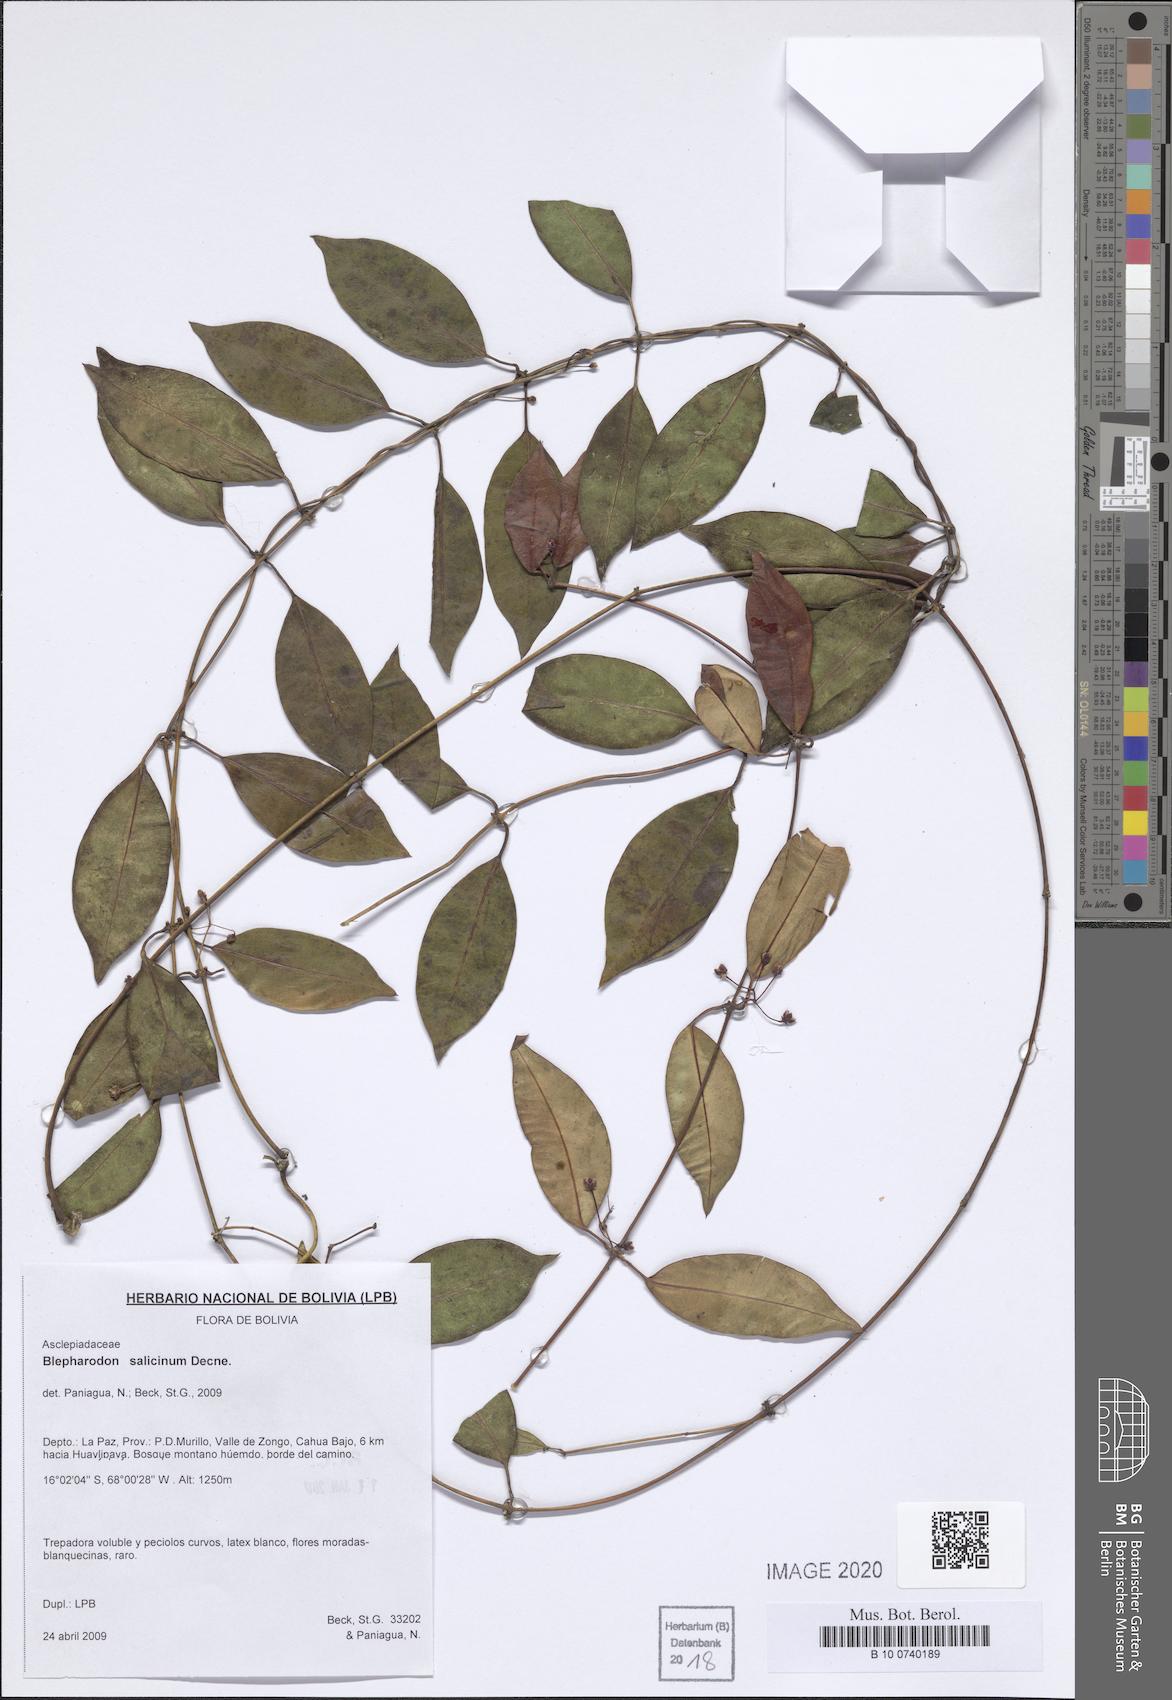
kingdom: Plantae
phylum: Tracheophyta
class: Magnoliopsida
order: Gentianales
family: Apocynaceae
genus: Vailia
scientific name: Vailia salicina
